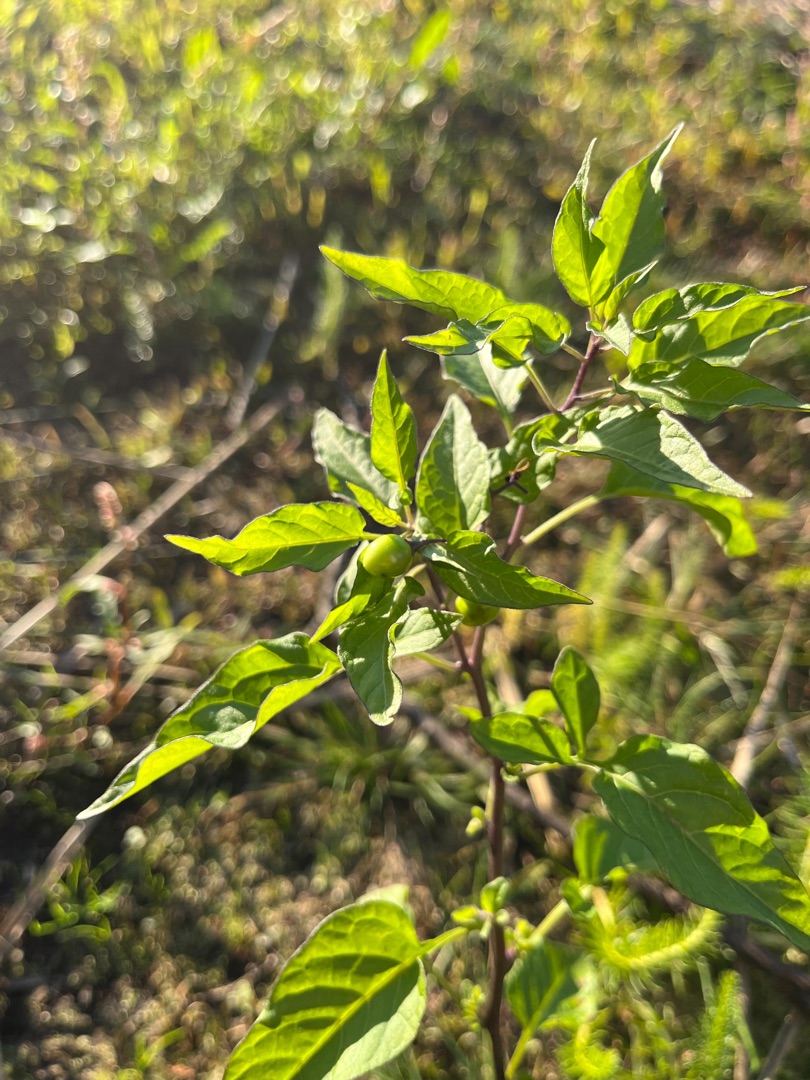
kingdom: Plantae
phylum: Tracheophyta
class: Magnoliopsida
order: Solanales
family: Solanaceae
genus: Solanum
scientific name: Solanum dulcamara
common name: Bittersød natskygge
